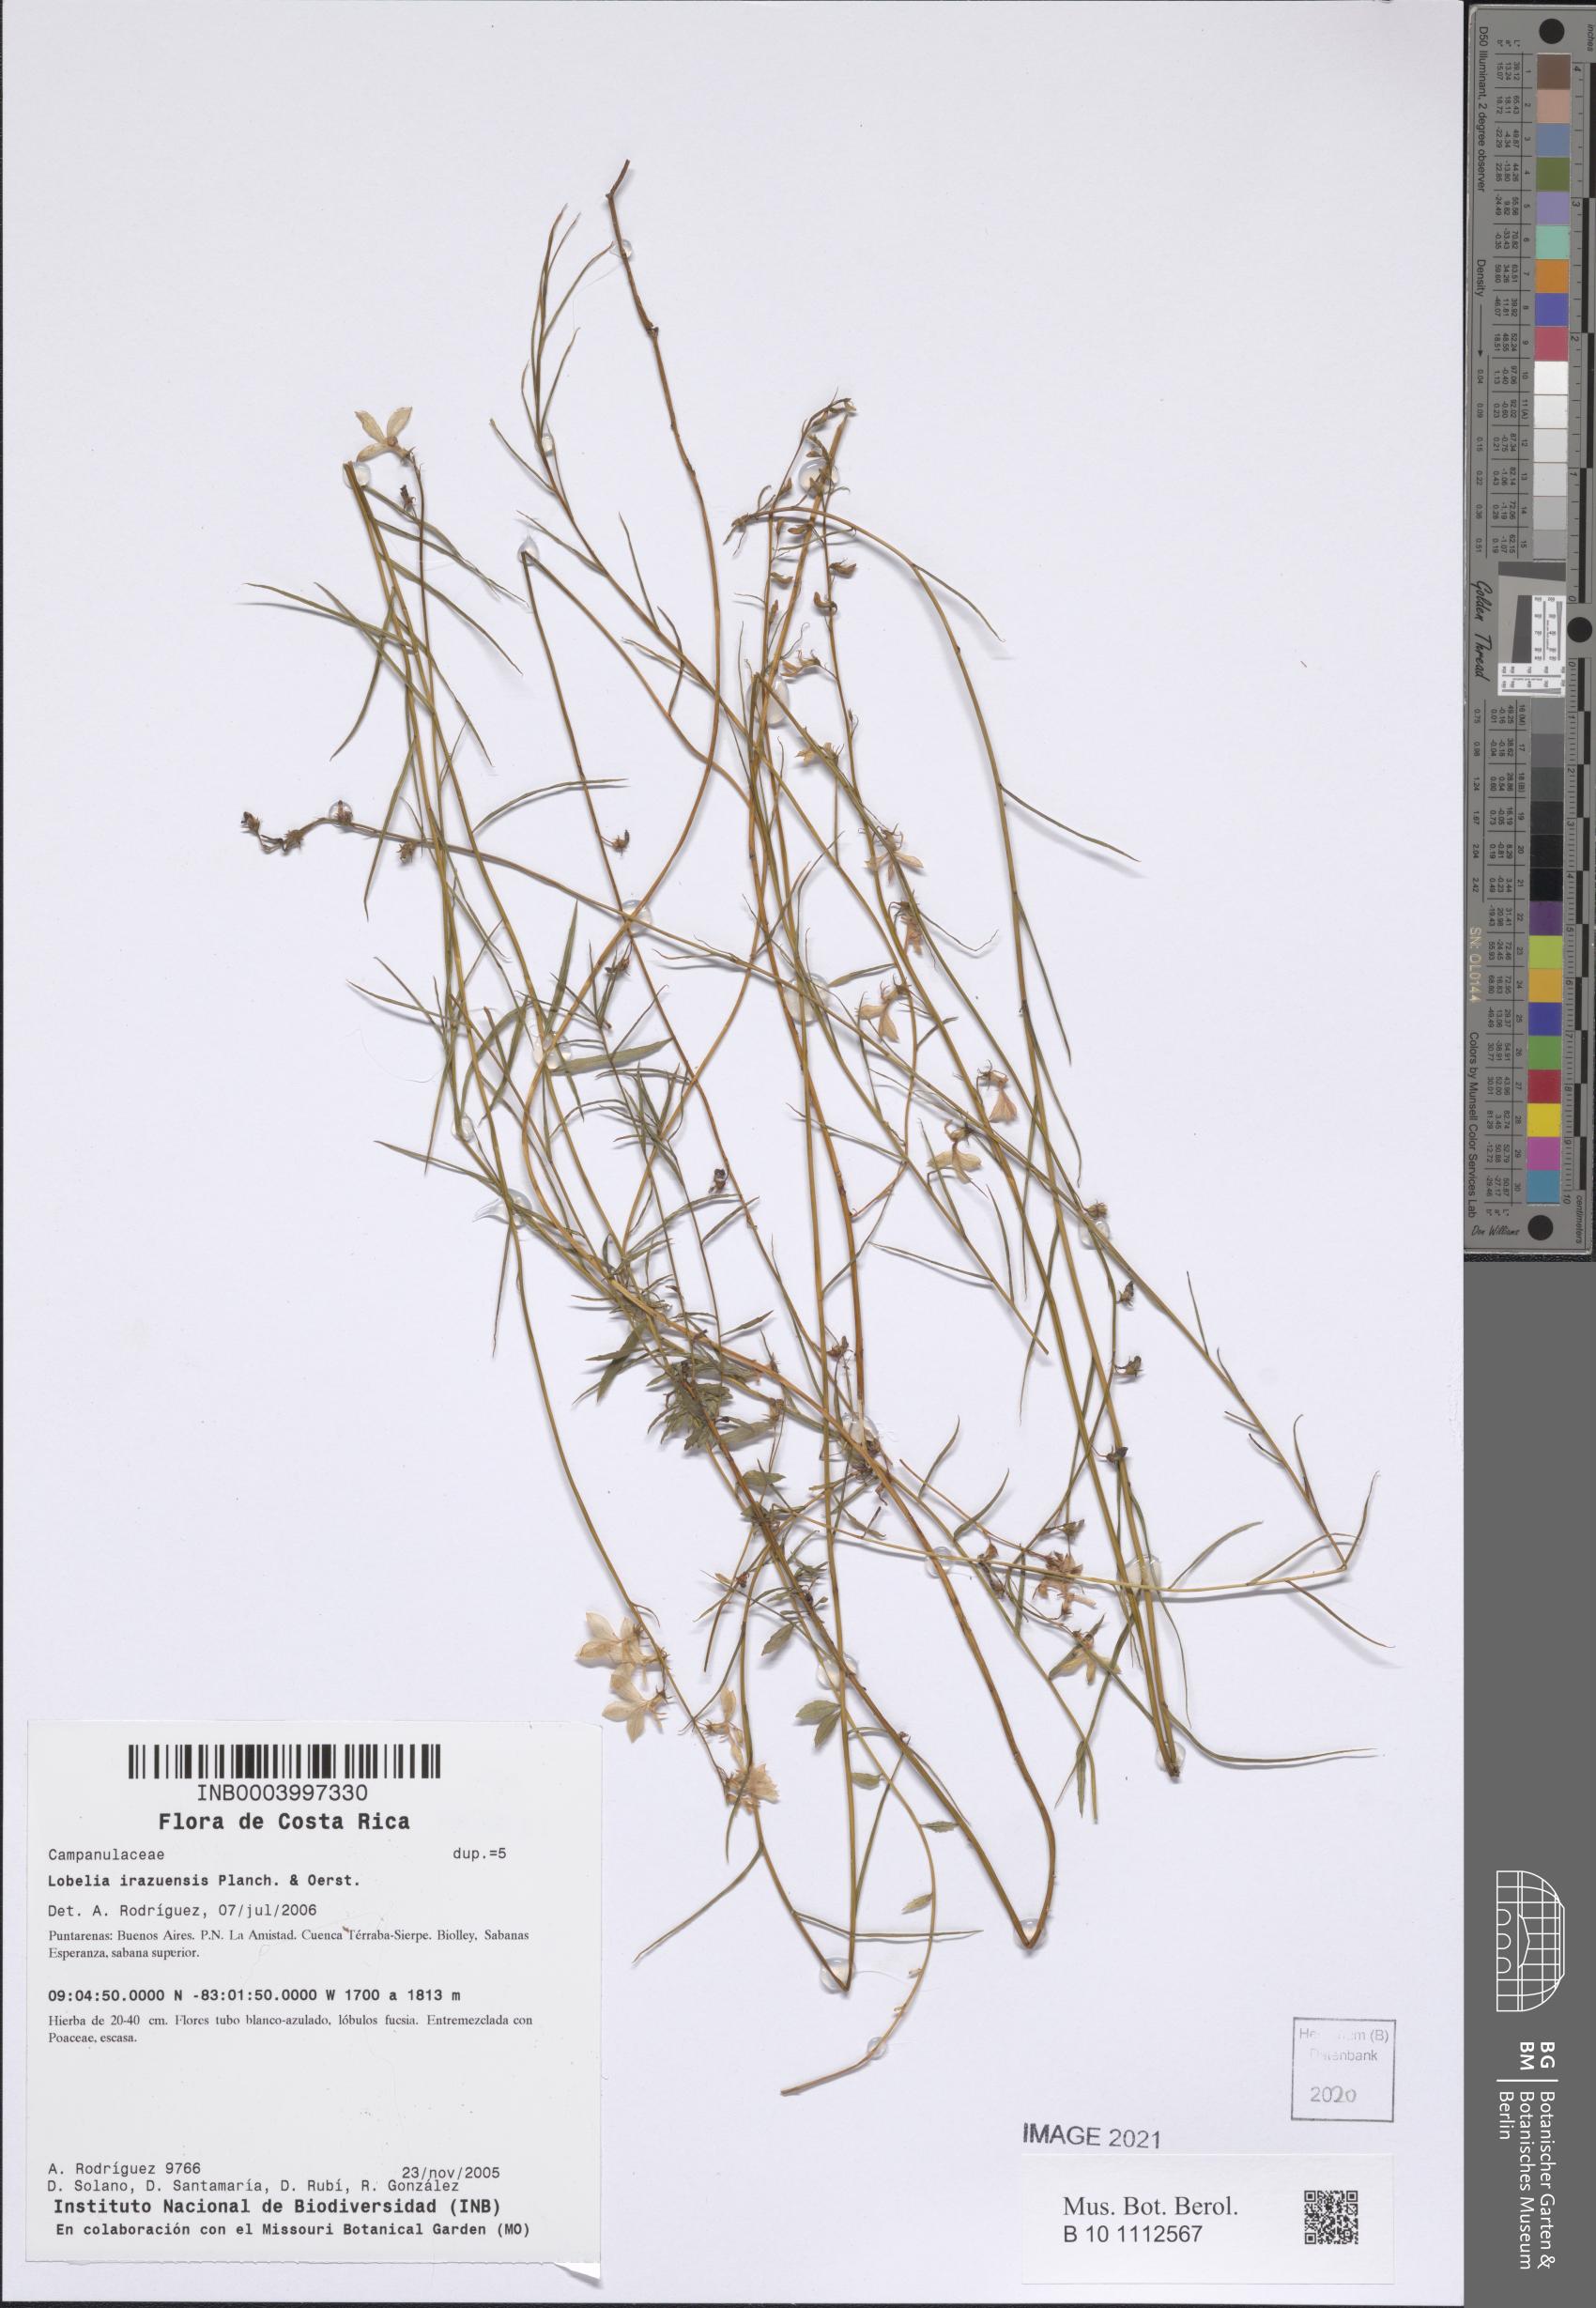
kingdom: Plantae
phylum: Tracheophyta
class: Magnoliopsida
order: Asterales
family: Campanulaceae
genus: Lobelia
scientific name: Lobelia irasuensis
